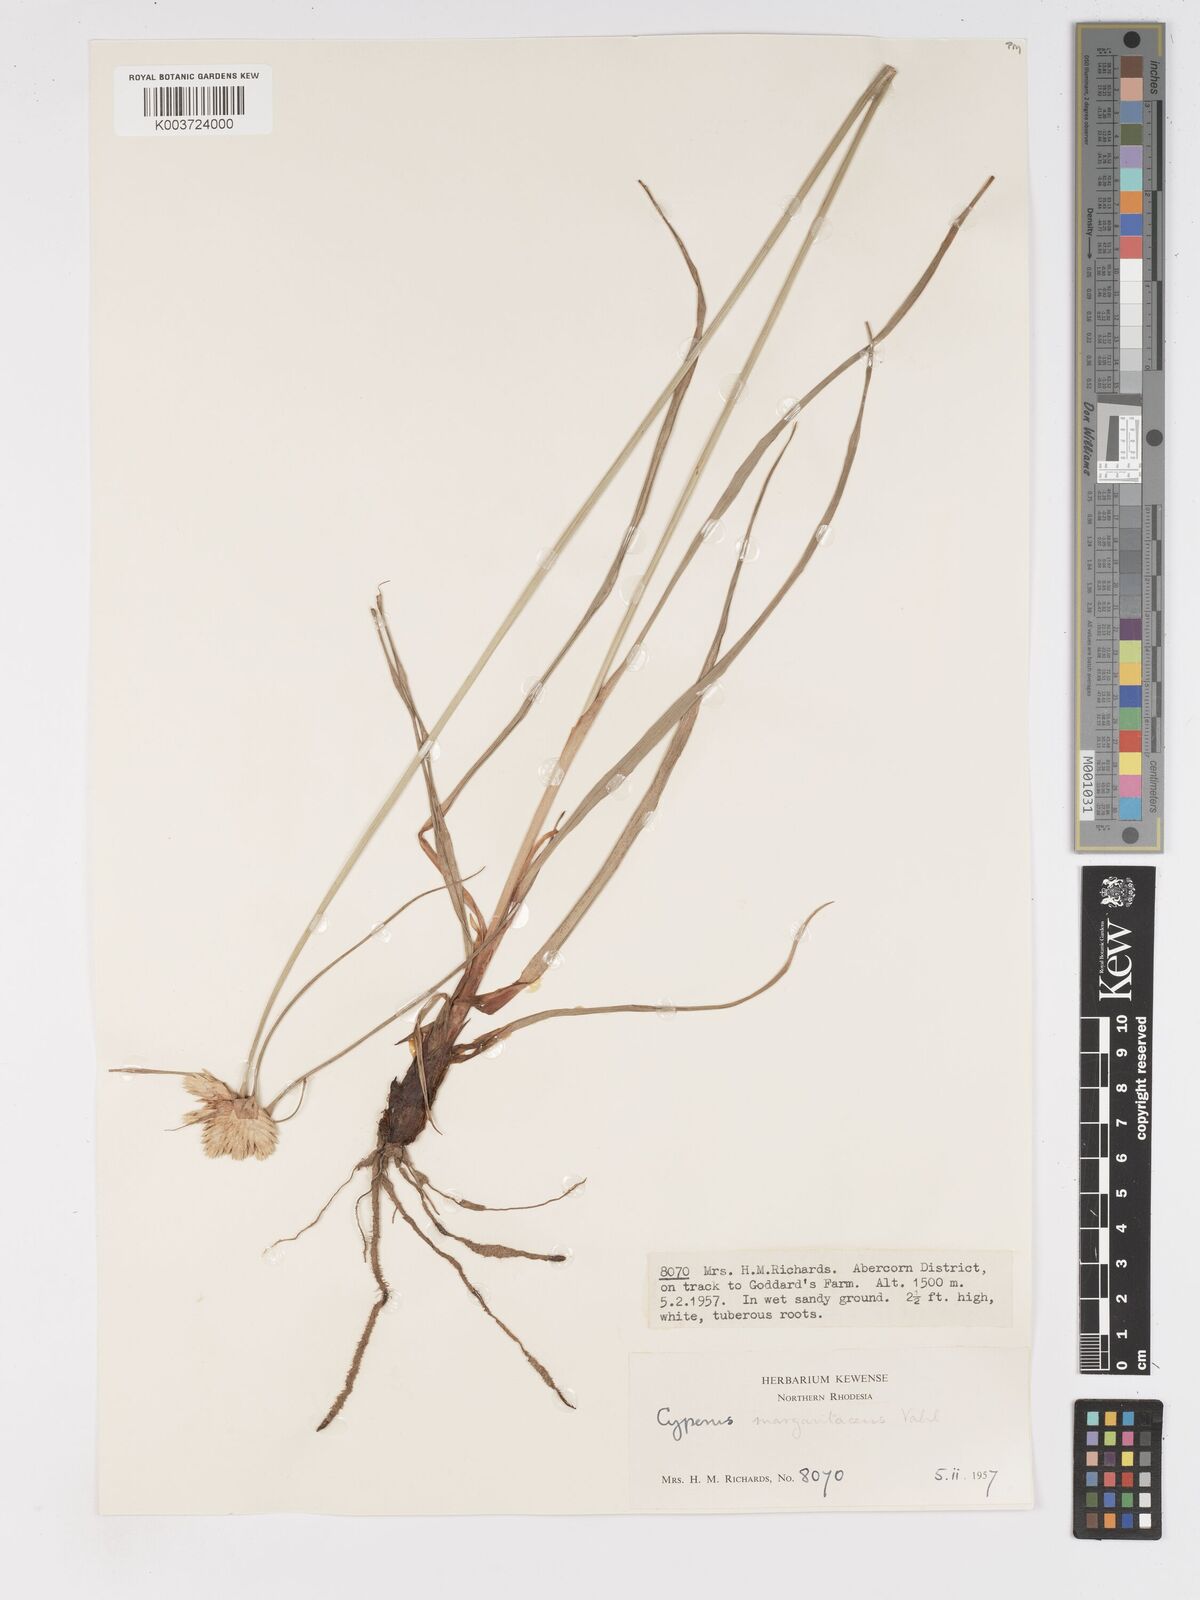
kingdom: Plantae
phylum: Tracheophyta
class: Liliopsida
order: Poales
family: Cyperaceae
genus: Cyperus
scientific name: Cyperus niveus
